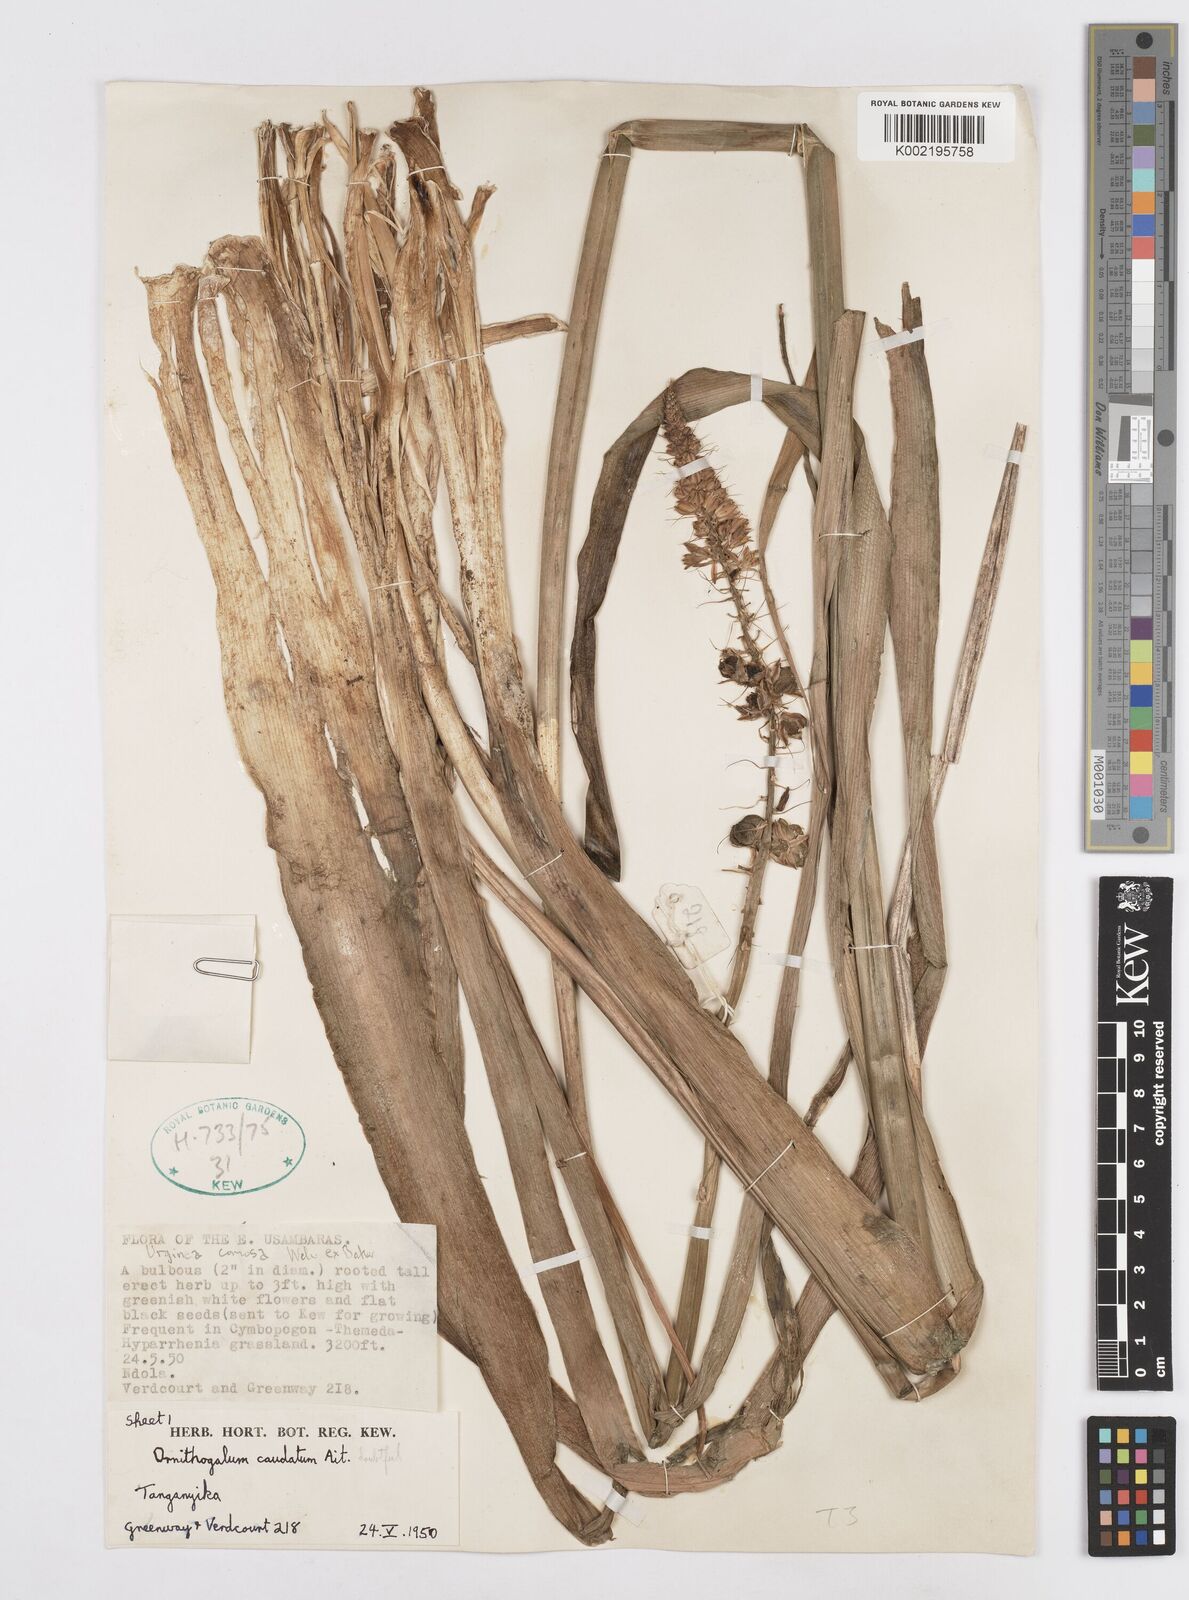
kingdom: Plantae
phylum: Tracheophyta
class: Liliopsida
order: Asparagales
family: Asparagaceae
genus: Albuca
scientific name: Albuca virens
